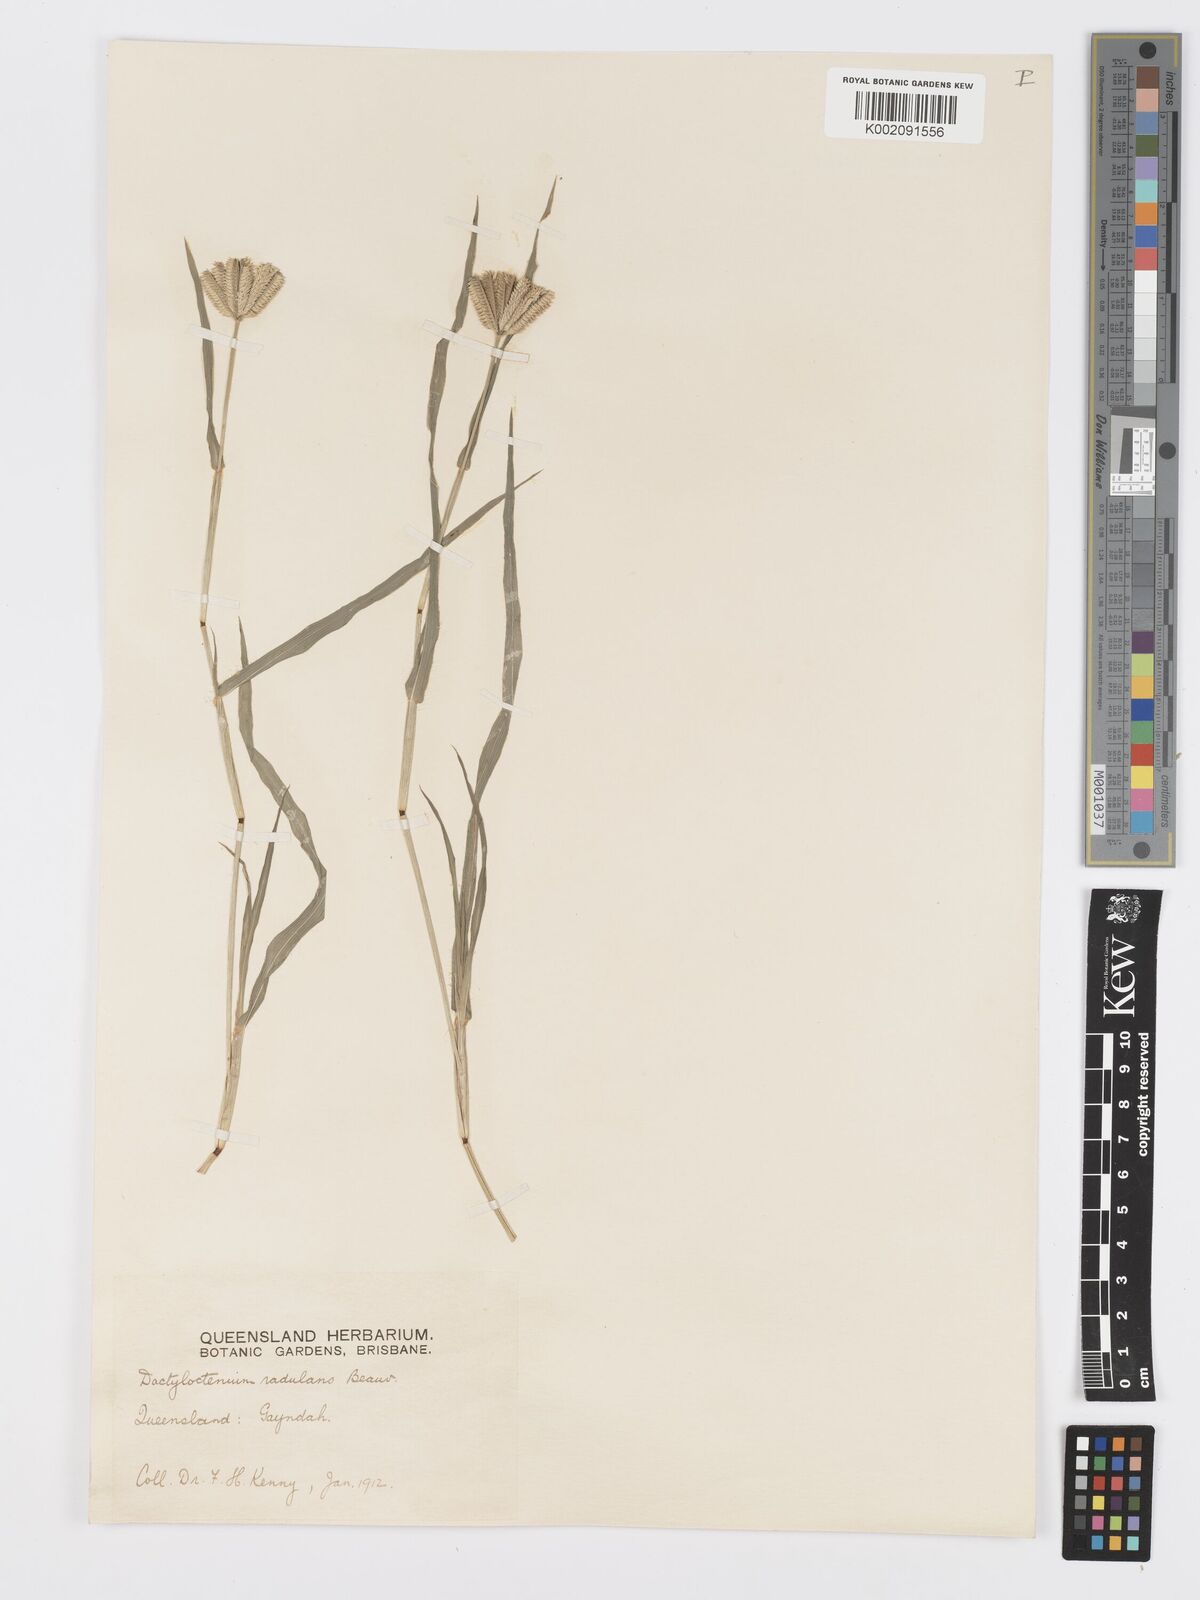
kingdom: Plantae
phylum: Tracheophyta
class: Liliopsida
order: Poales
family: Poaceae
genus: Dactyloctenium
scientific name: Dactyloctenium radulans
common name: Button-grass
